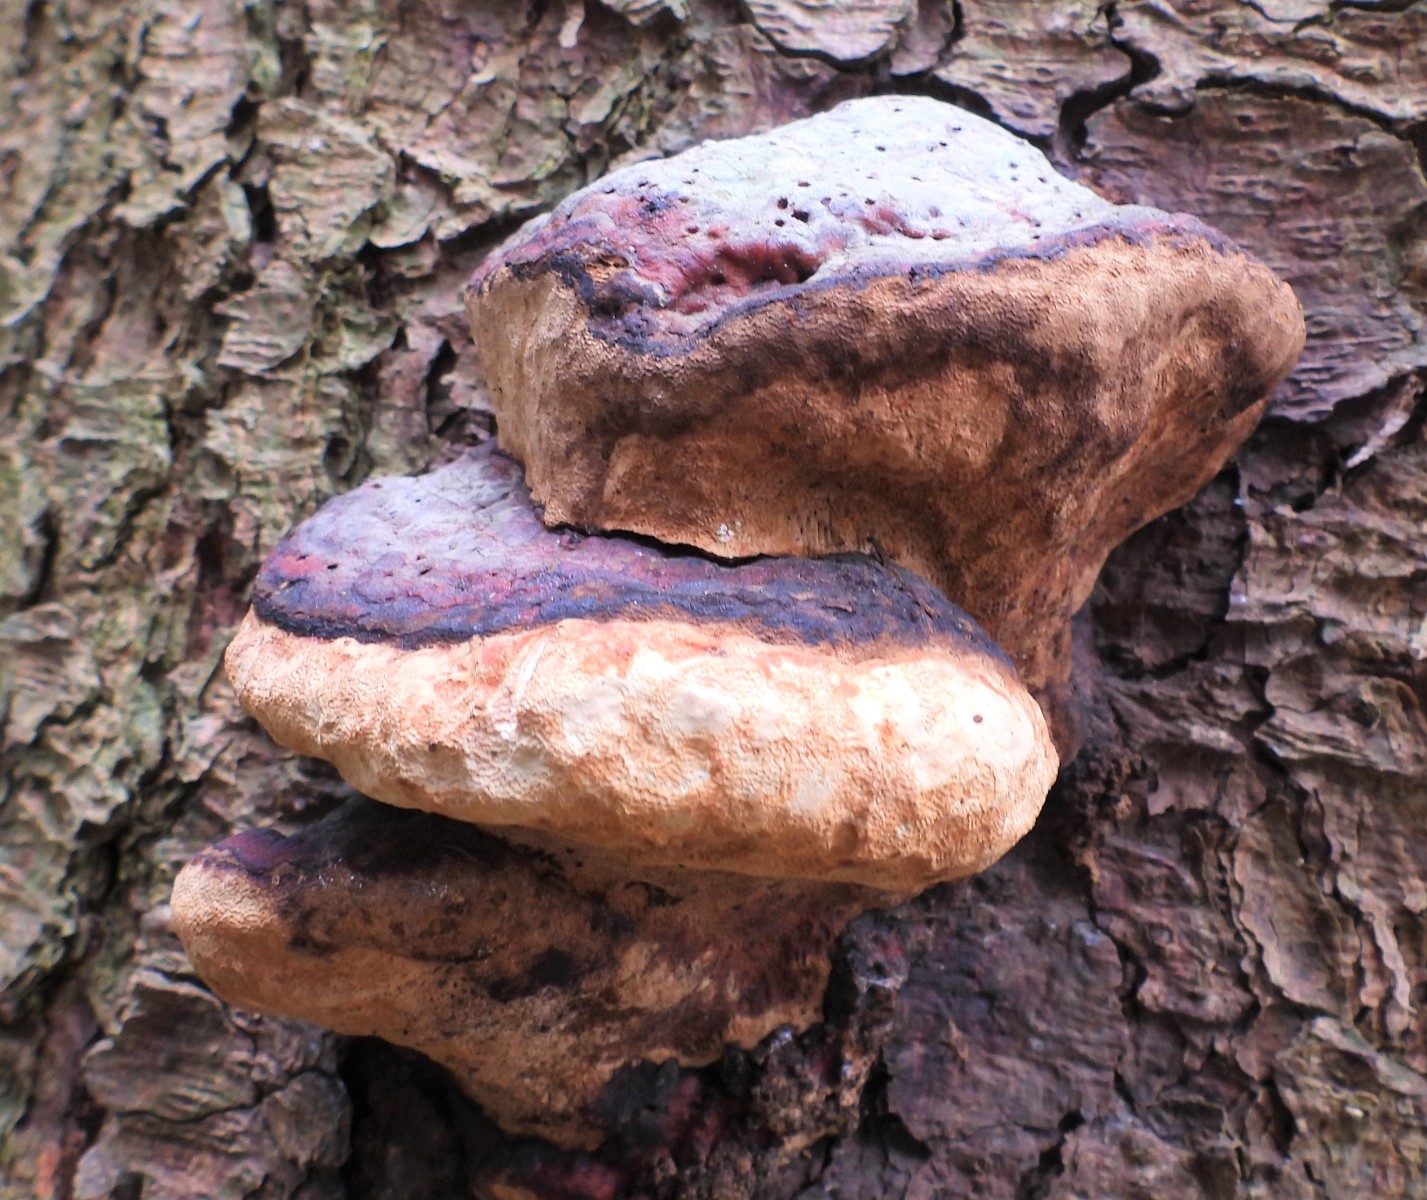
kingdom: Fungi
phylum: Basidiomycota
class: Agaricomycetes
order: Polyporales
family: Fomitopsidaceae
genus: Fomitopsis
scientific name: Fomitopsis pinicola
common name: randbæltet hovporesvamp
